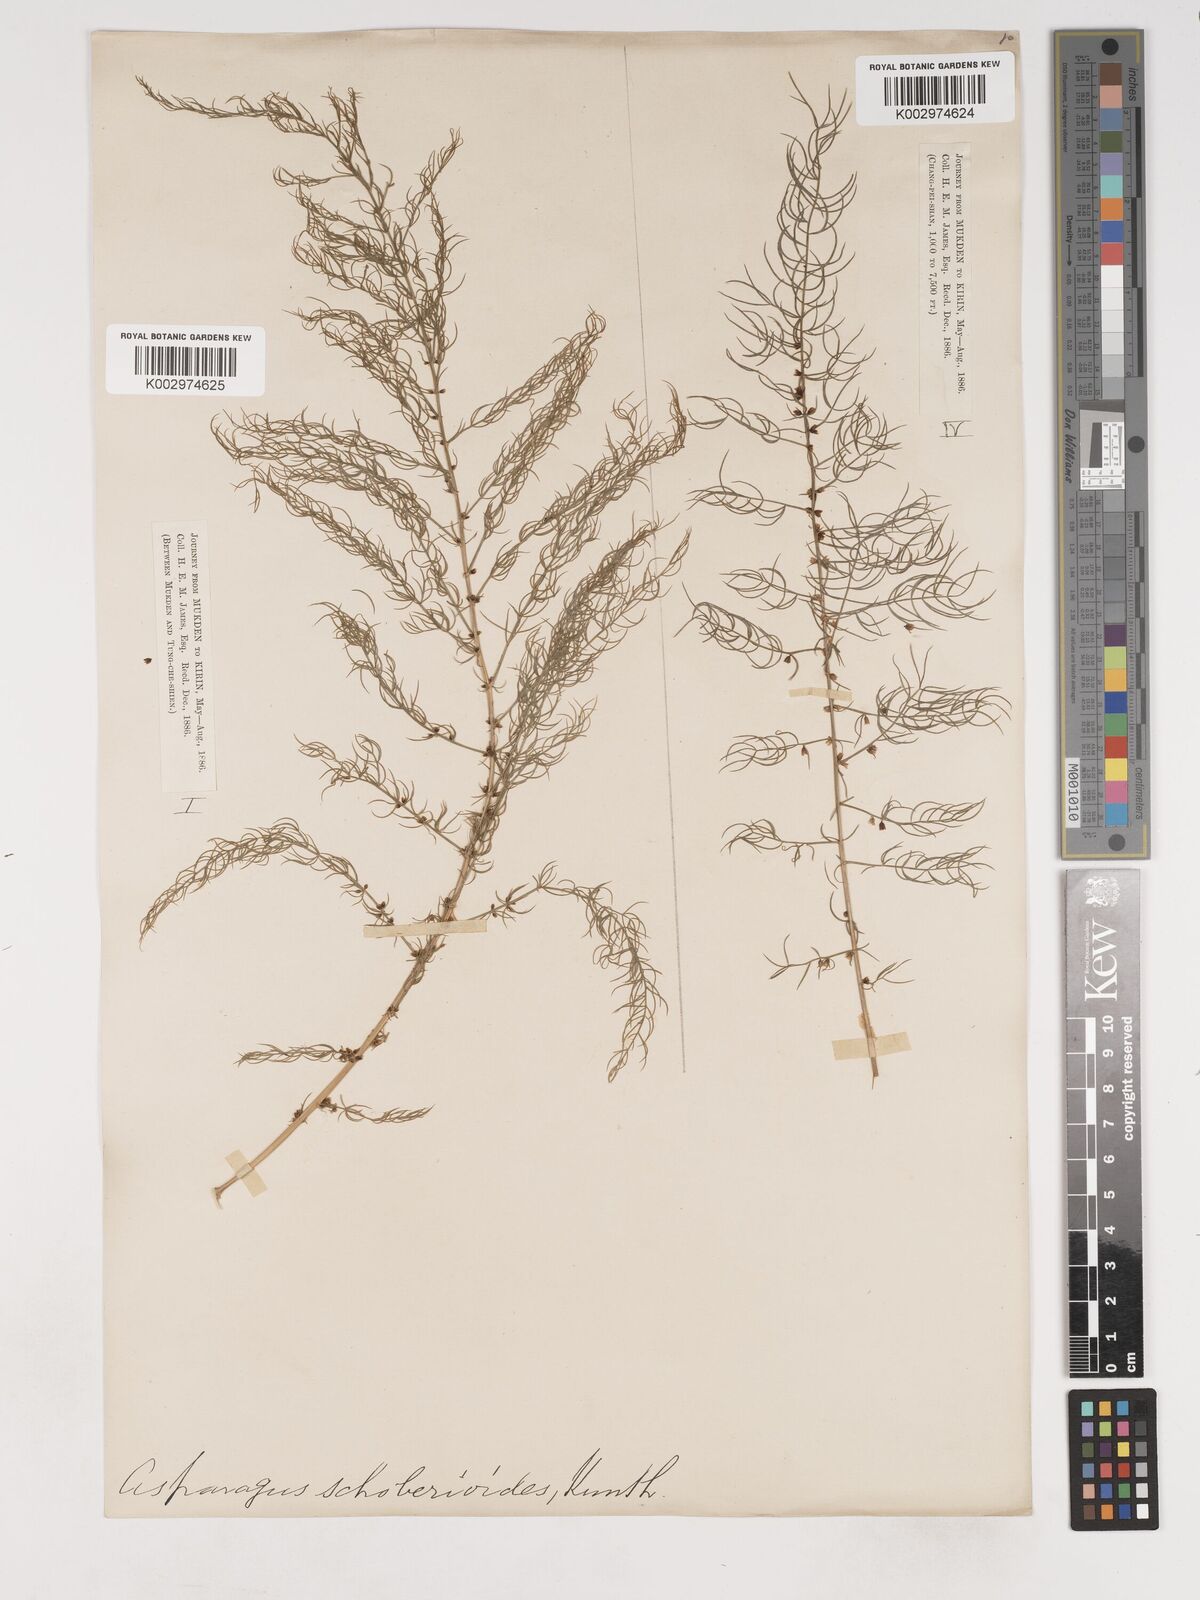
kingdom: Plantae
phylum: Tracheophyta
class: Liliopsida
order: Asparagales
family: Asparagaceae
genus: Asparagus
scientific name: Asparagus schoberioides
